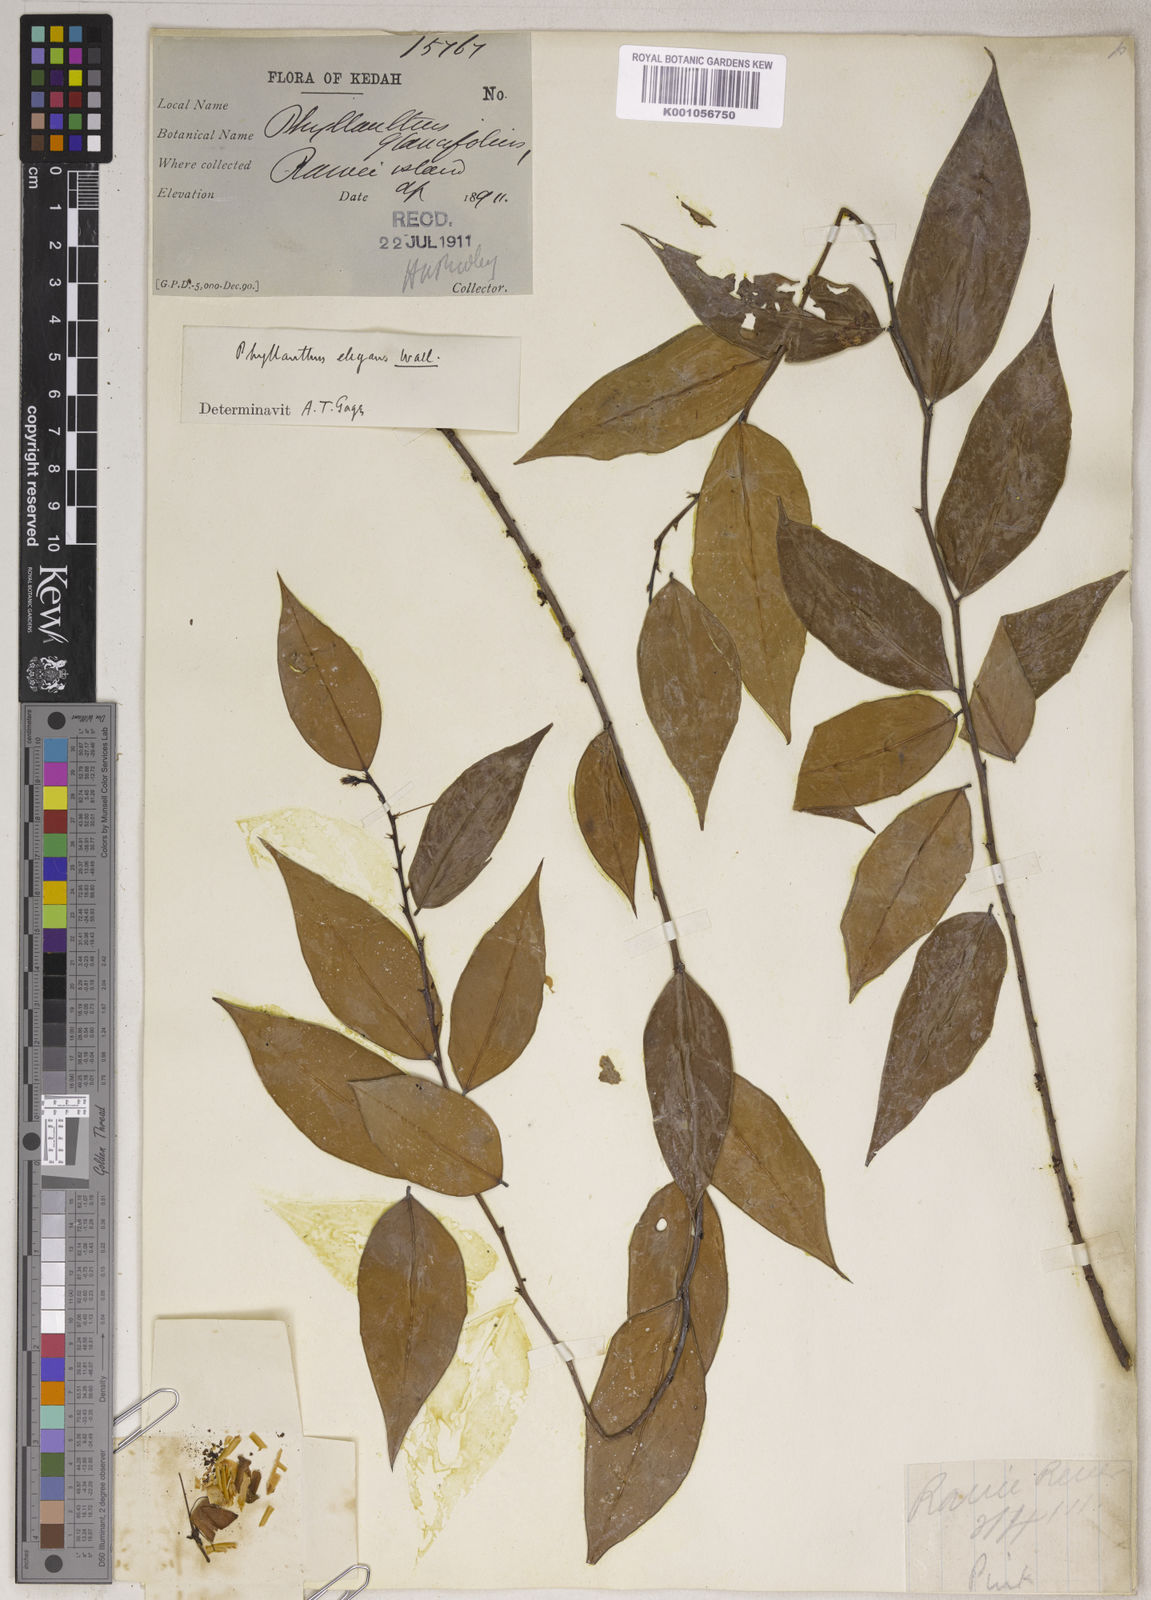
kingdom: Plantae
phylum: Tracheophyta
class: Magnoliopsida
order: Malpighiales
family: Phyllanthaceae
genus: Phyllanthus
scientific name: Phyllanthus
